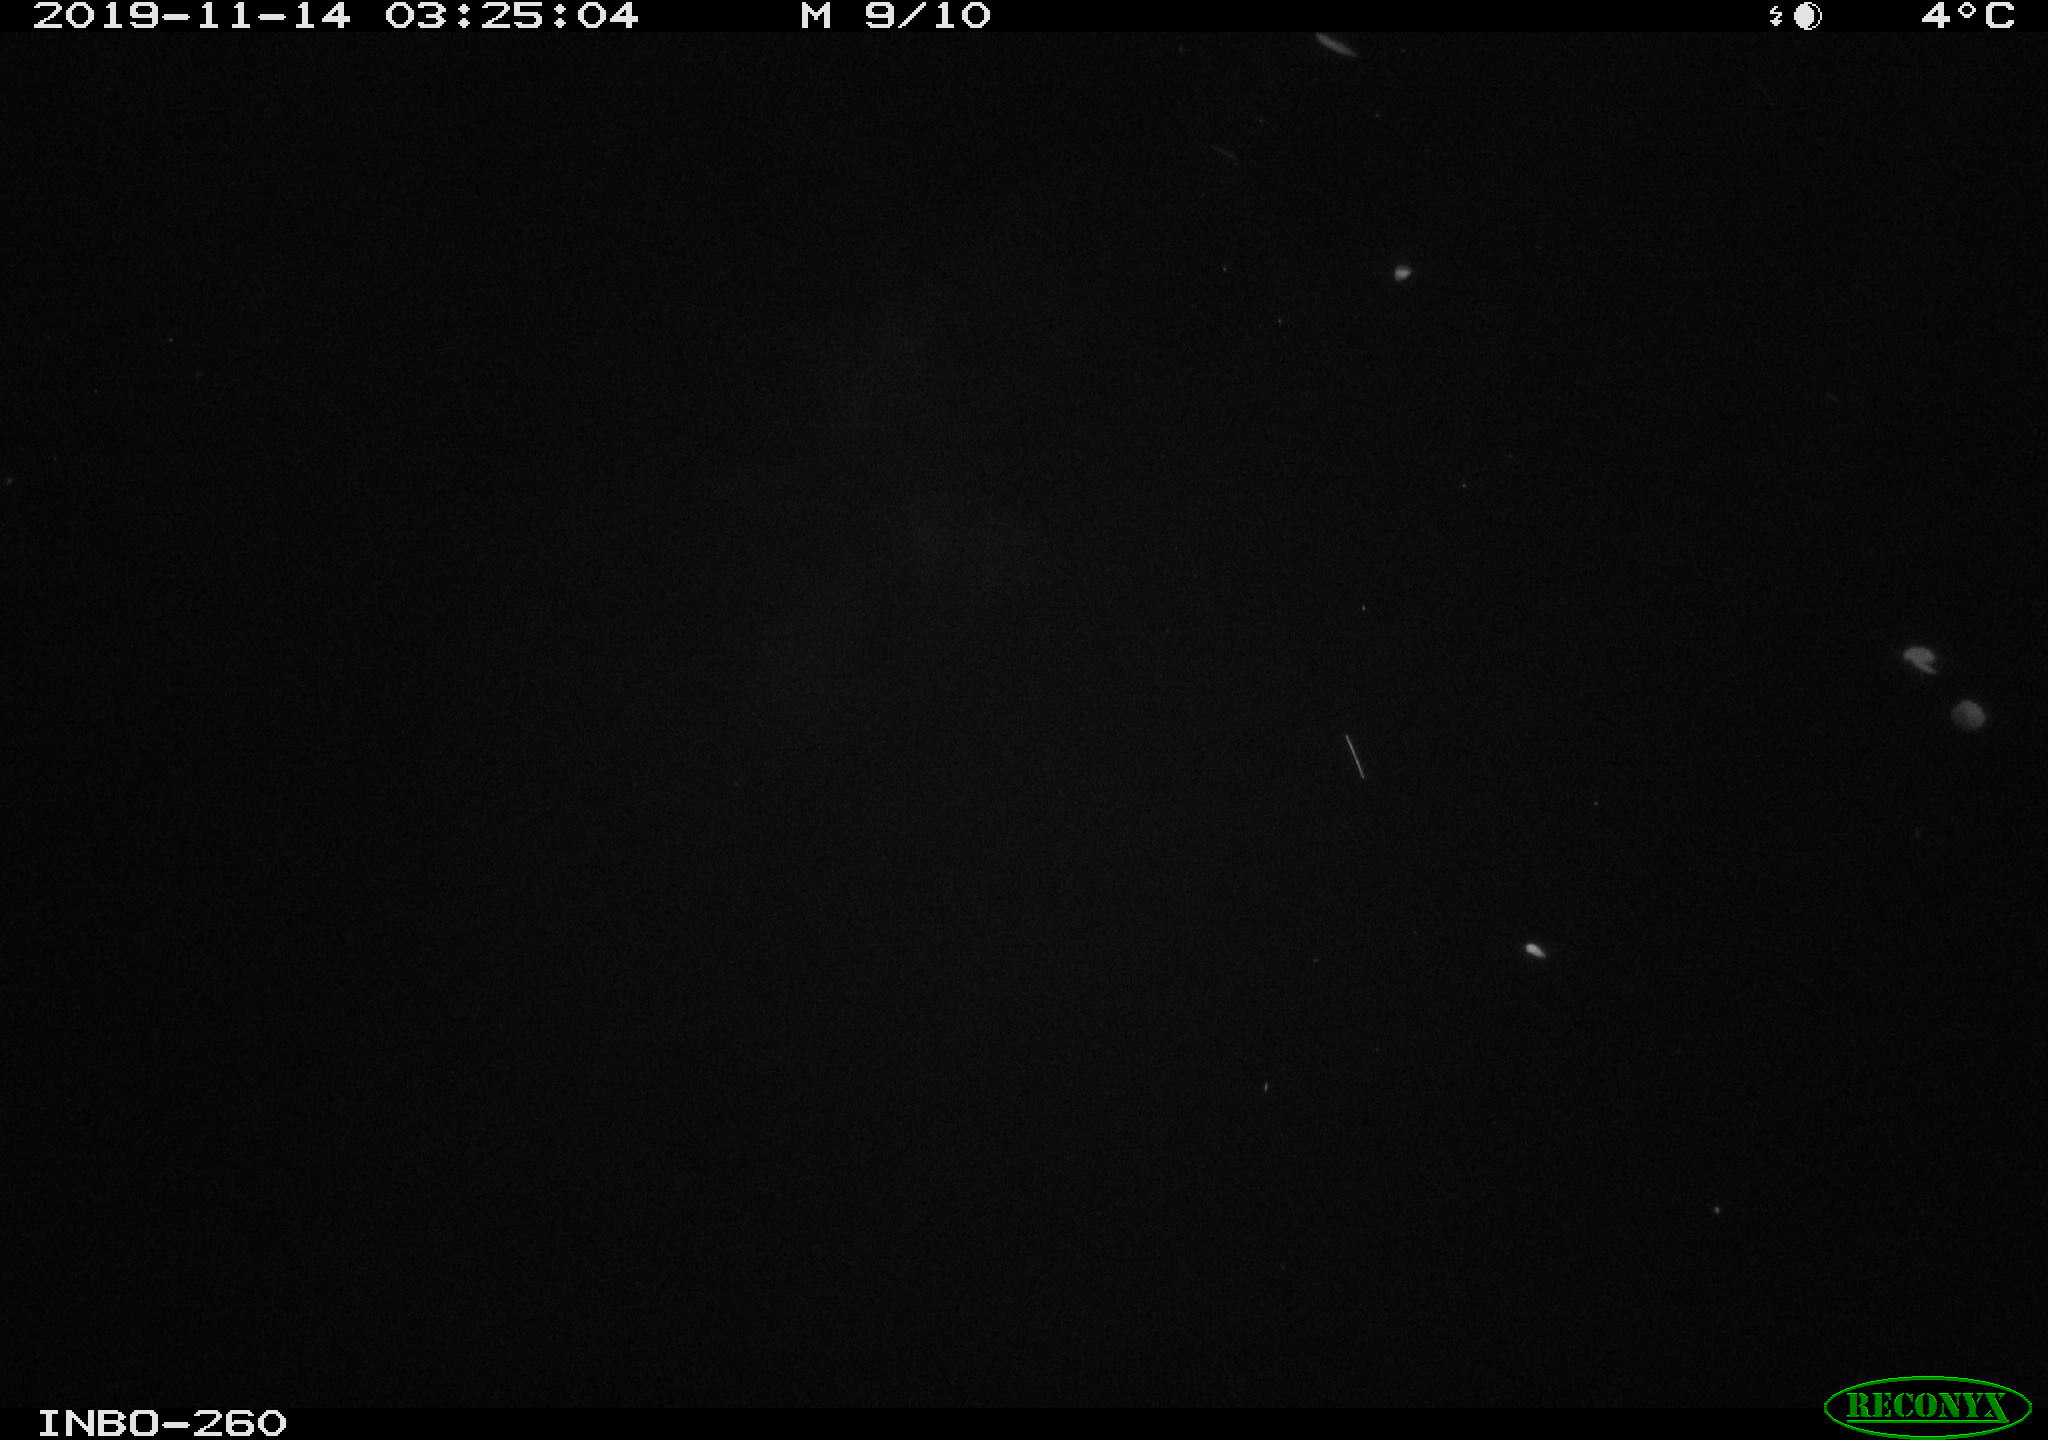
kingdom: Animalia
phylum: Chordata
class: Aves
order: Anseriformes
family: Anatidae
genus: Anas
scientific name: Anas platyrhynchos
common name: Mallard
